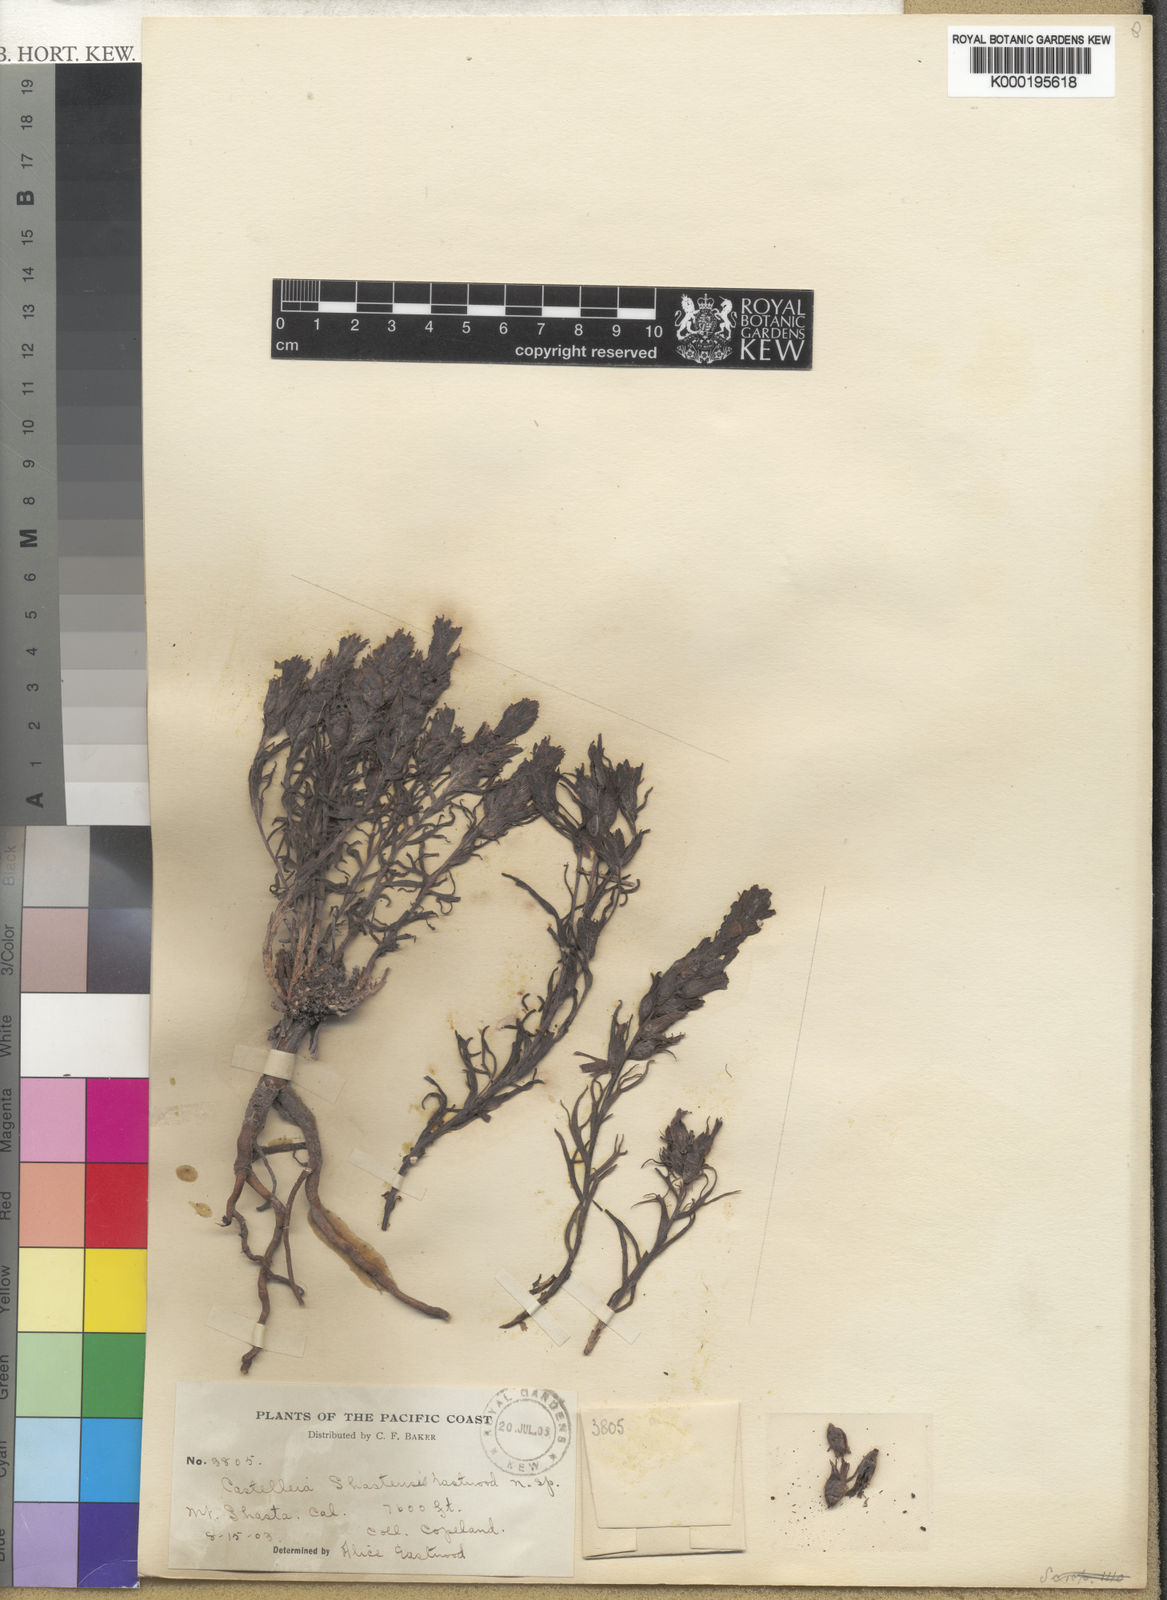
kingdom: Plantae
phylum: Tracheophyta
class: Magnoliopsida
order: Lamiales
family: Orobanchaceae
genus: Castilleja
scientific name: Castilleja arachnoidea
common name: Cobwebby indian paintbrush
